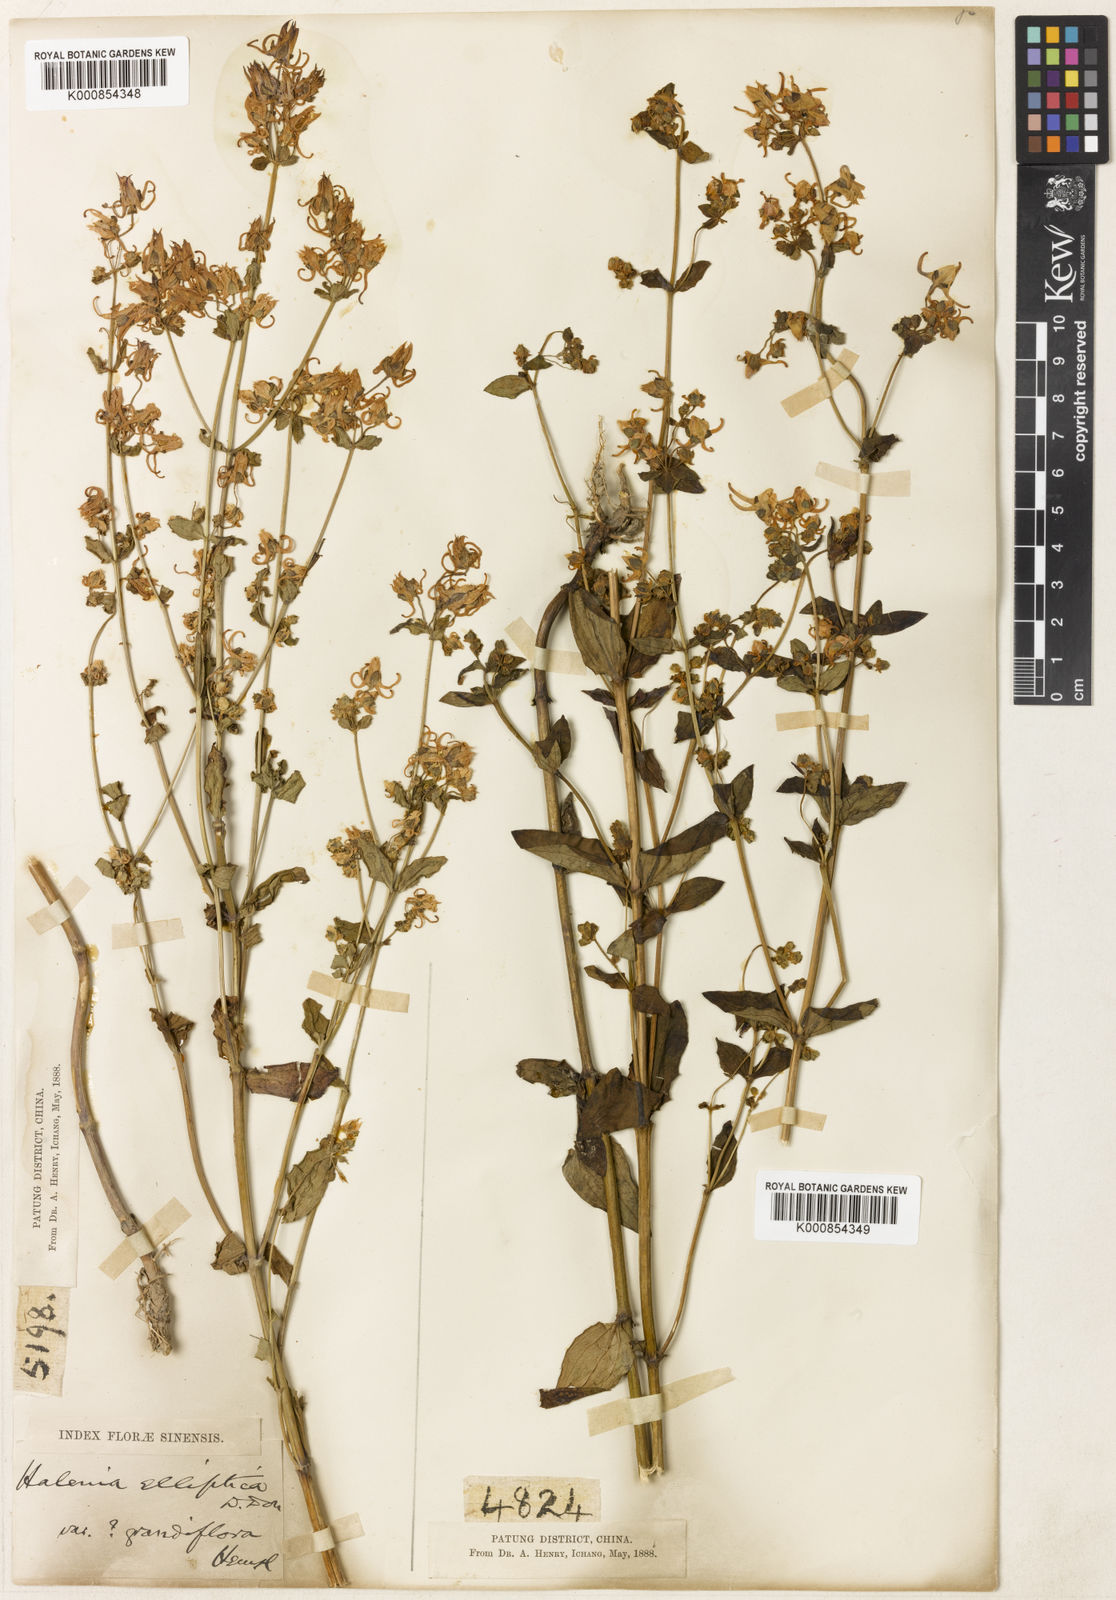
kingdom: Plantae
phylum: Tracheophyta
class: Magnoliopsida
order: Gentianales
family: Gentianaceae
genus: Halenia
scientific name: Halenia elliptica
